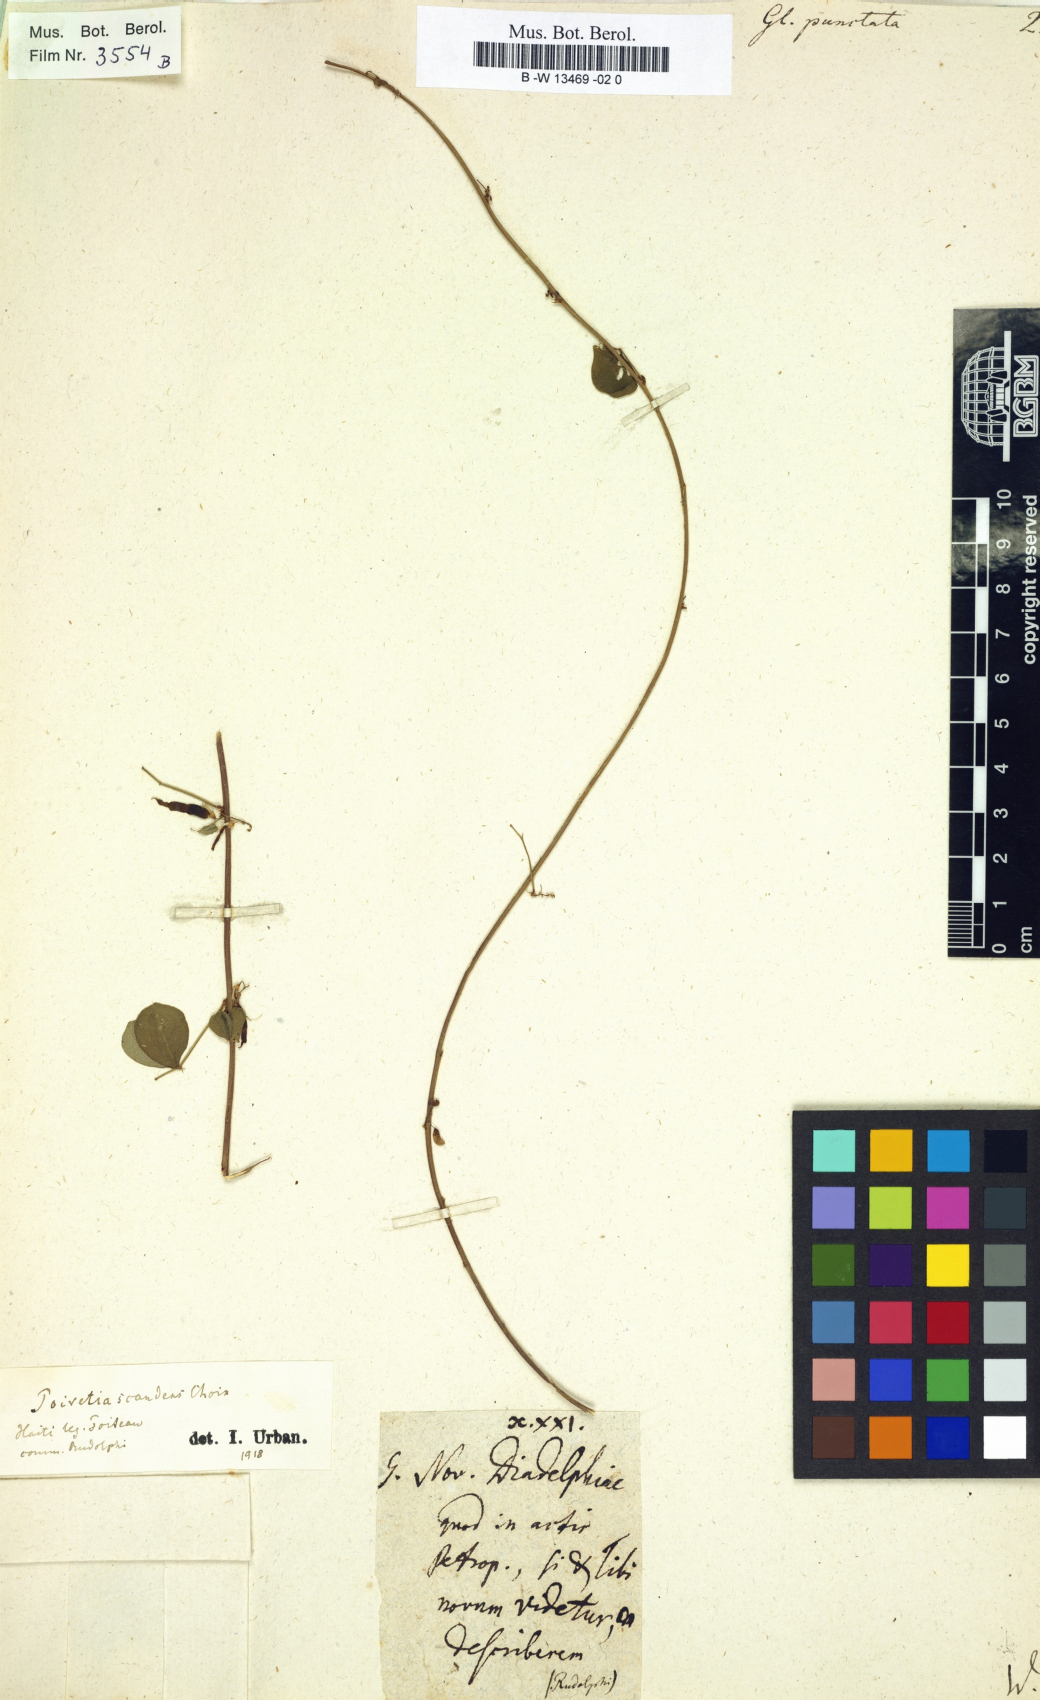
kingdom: Plantae
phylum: Tracheophyta
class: Magnoliopsida
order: Fabales
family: Fabaceae
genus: Poiretia
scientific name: Poiretia punctata
